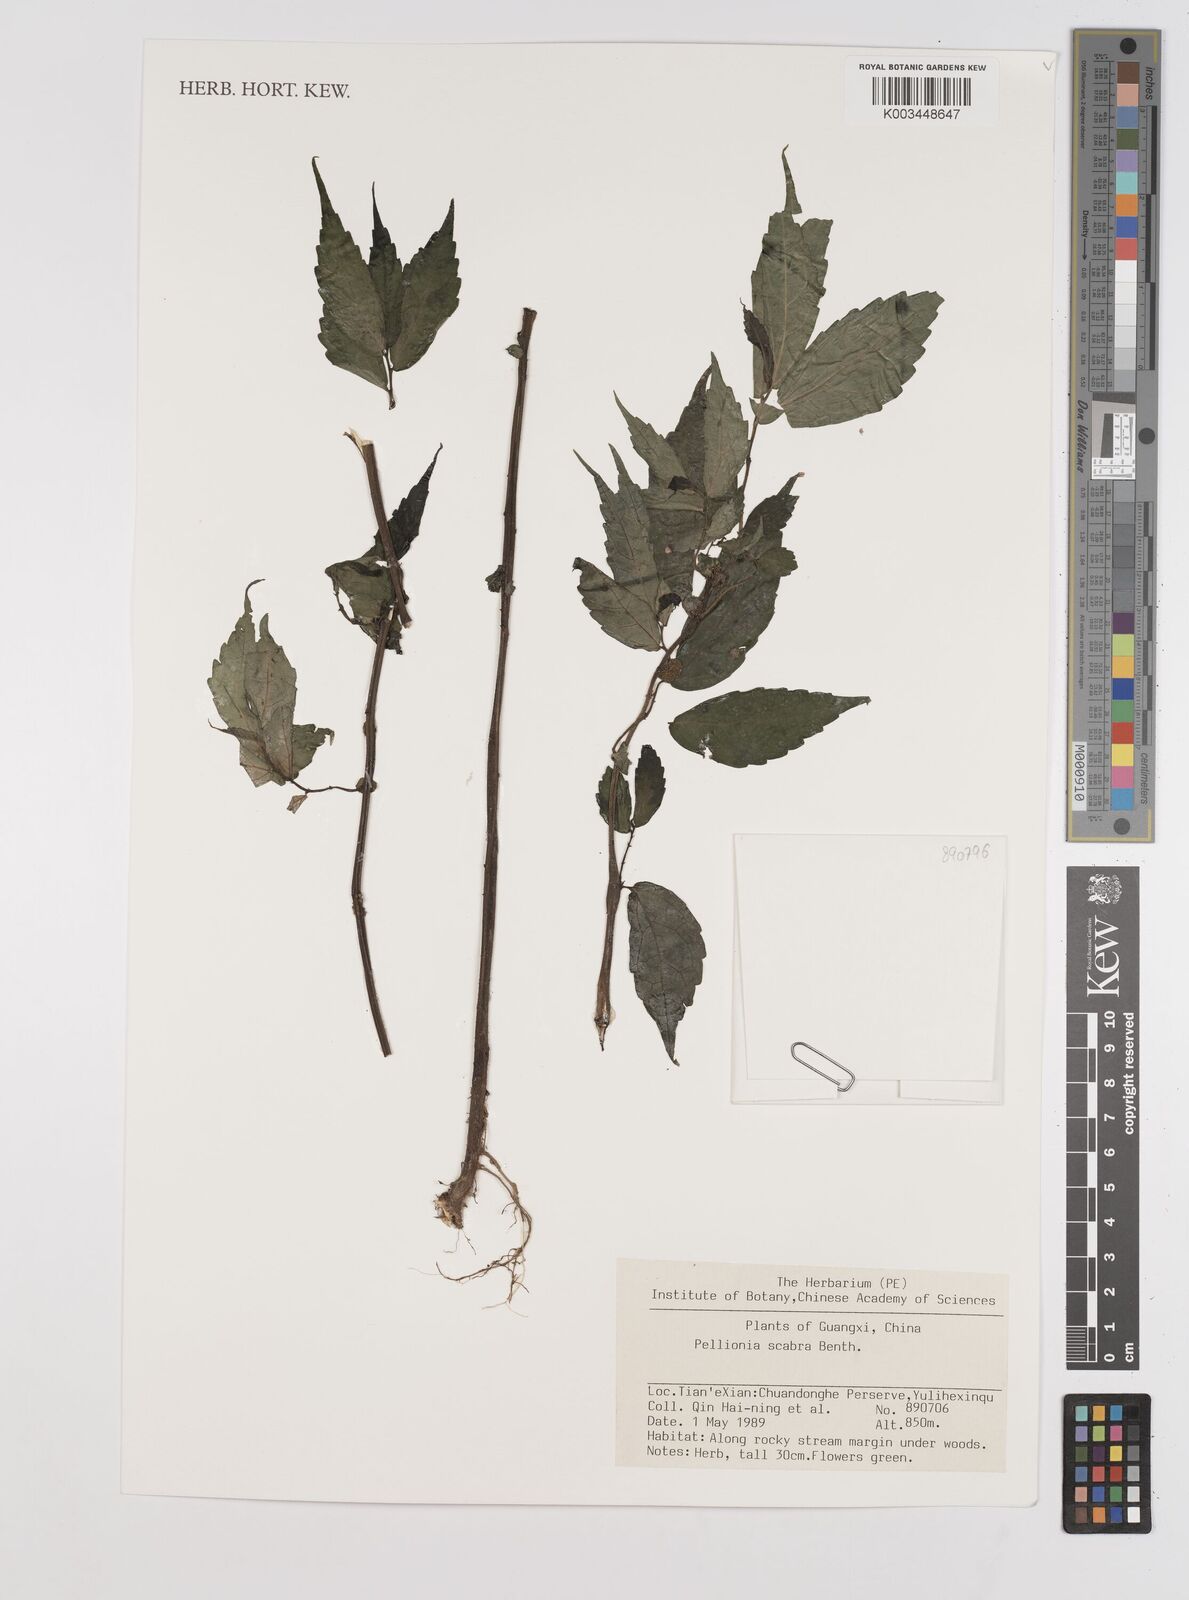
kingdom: Plantae
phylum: Tracheophyta
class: Magnoliopsida
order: Rosales
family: Urticaceae
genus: Elatostema
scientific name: Elatostema
